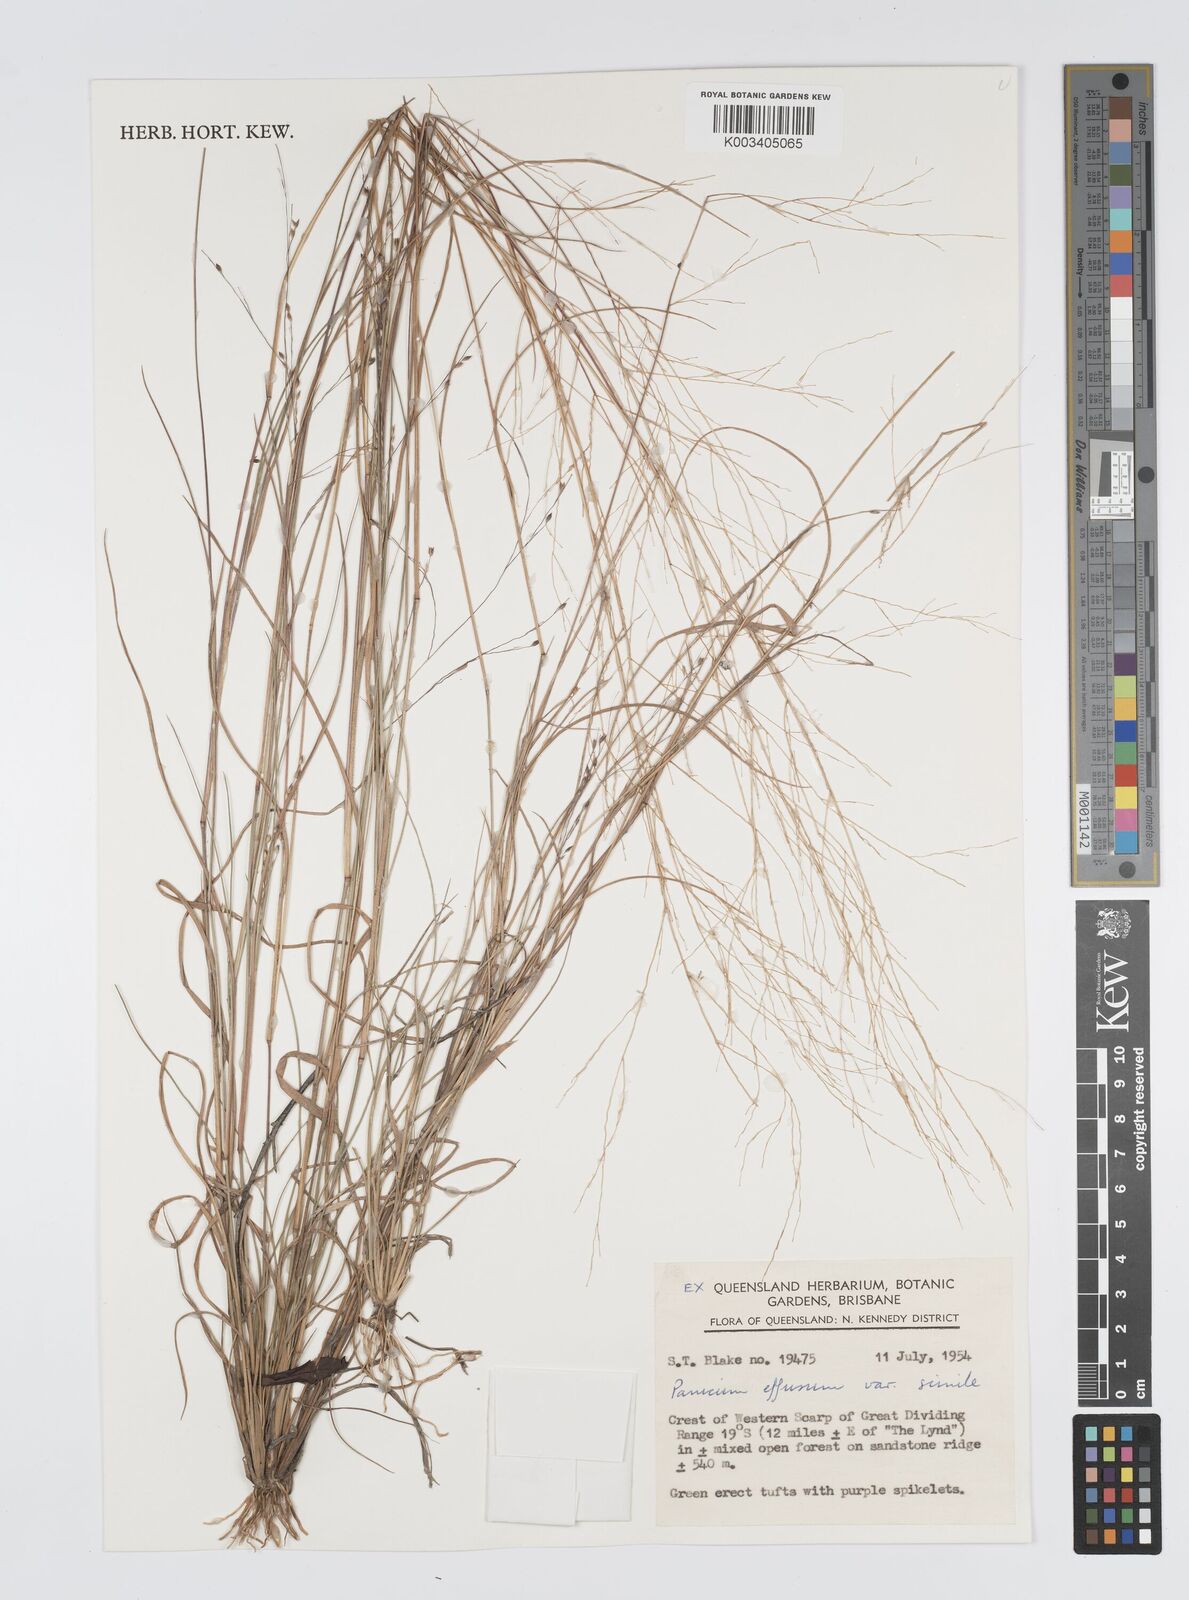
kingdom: Plantae
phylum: Tracheophyta
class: Liliopsida
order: Poales
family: Poaceae
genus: Panicum
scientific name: Panicum simile
